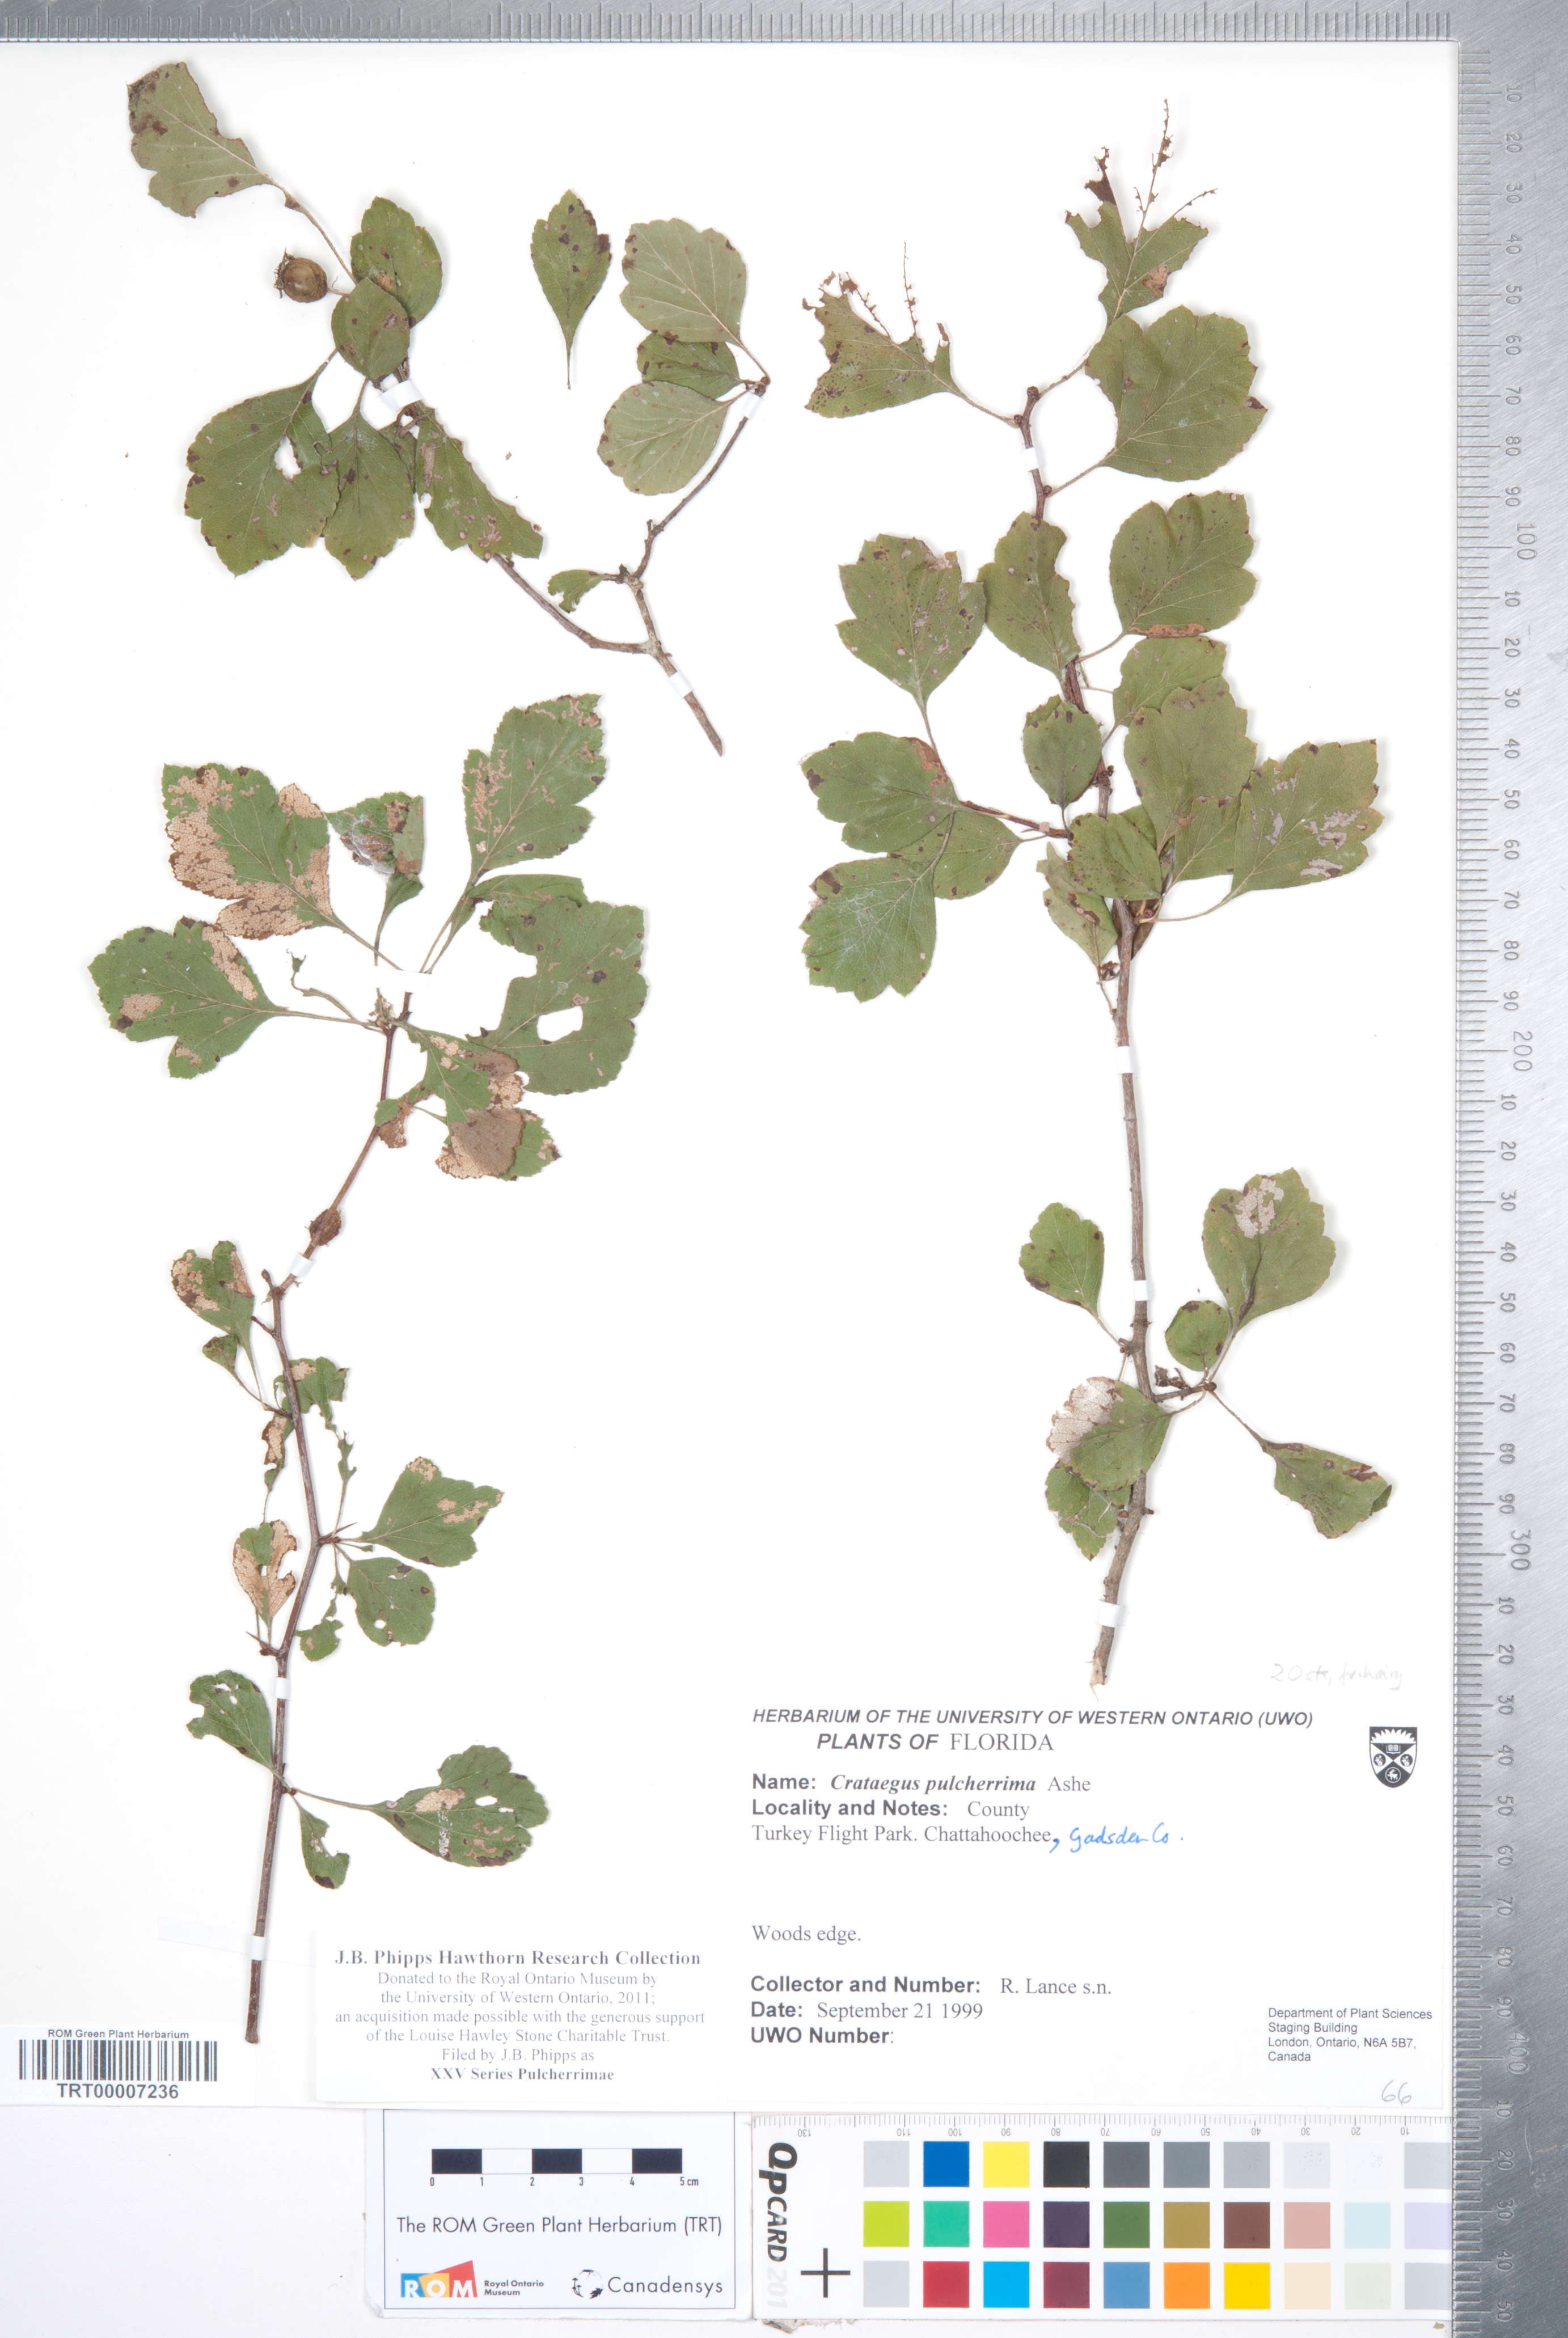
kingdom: Plantae
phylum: Tracheophyta
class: Magnoliopsida
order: Rosales
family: Rosaceae
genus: Crataegus
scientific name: Crataegus
